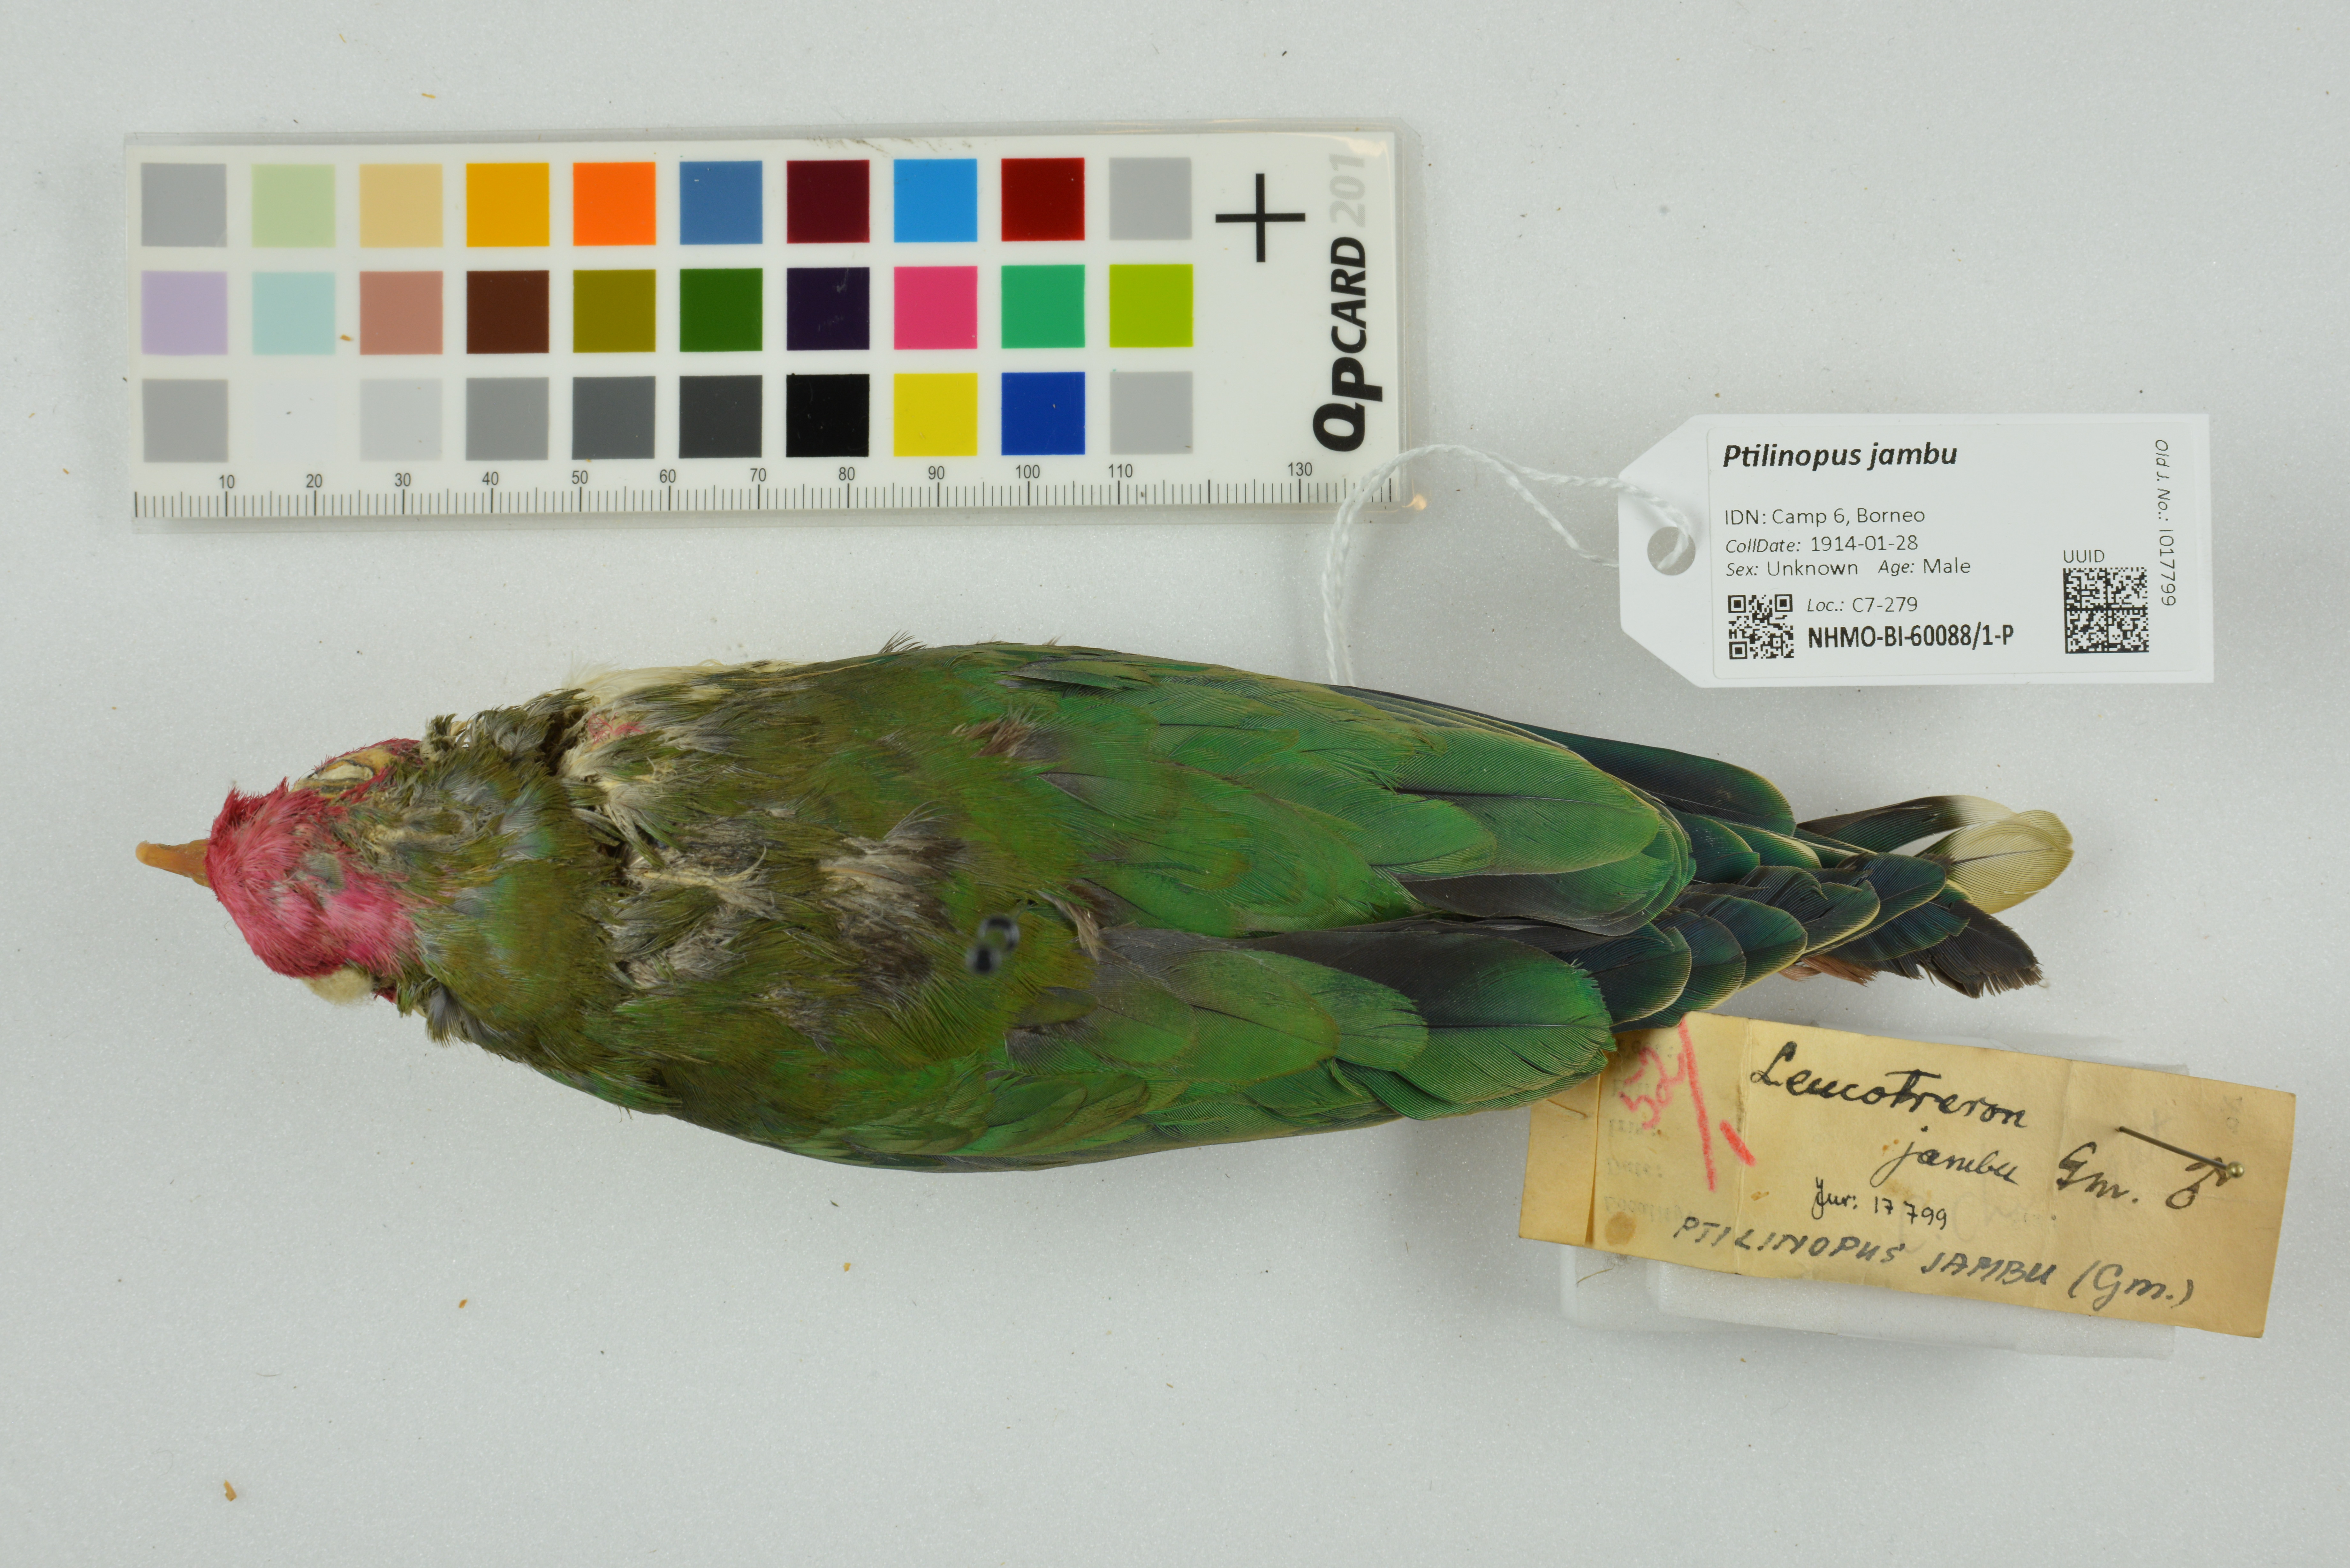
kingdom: Animalia
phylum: Chordata
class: Aves
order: Columbiformes
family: Columbidae
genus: Ptilinopus
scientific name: Ptilinopus jambu
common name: Jambu fruit dove
